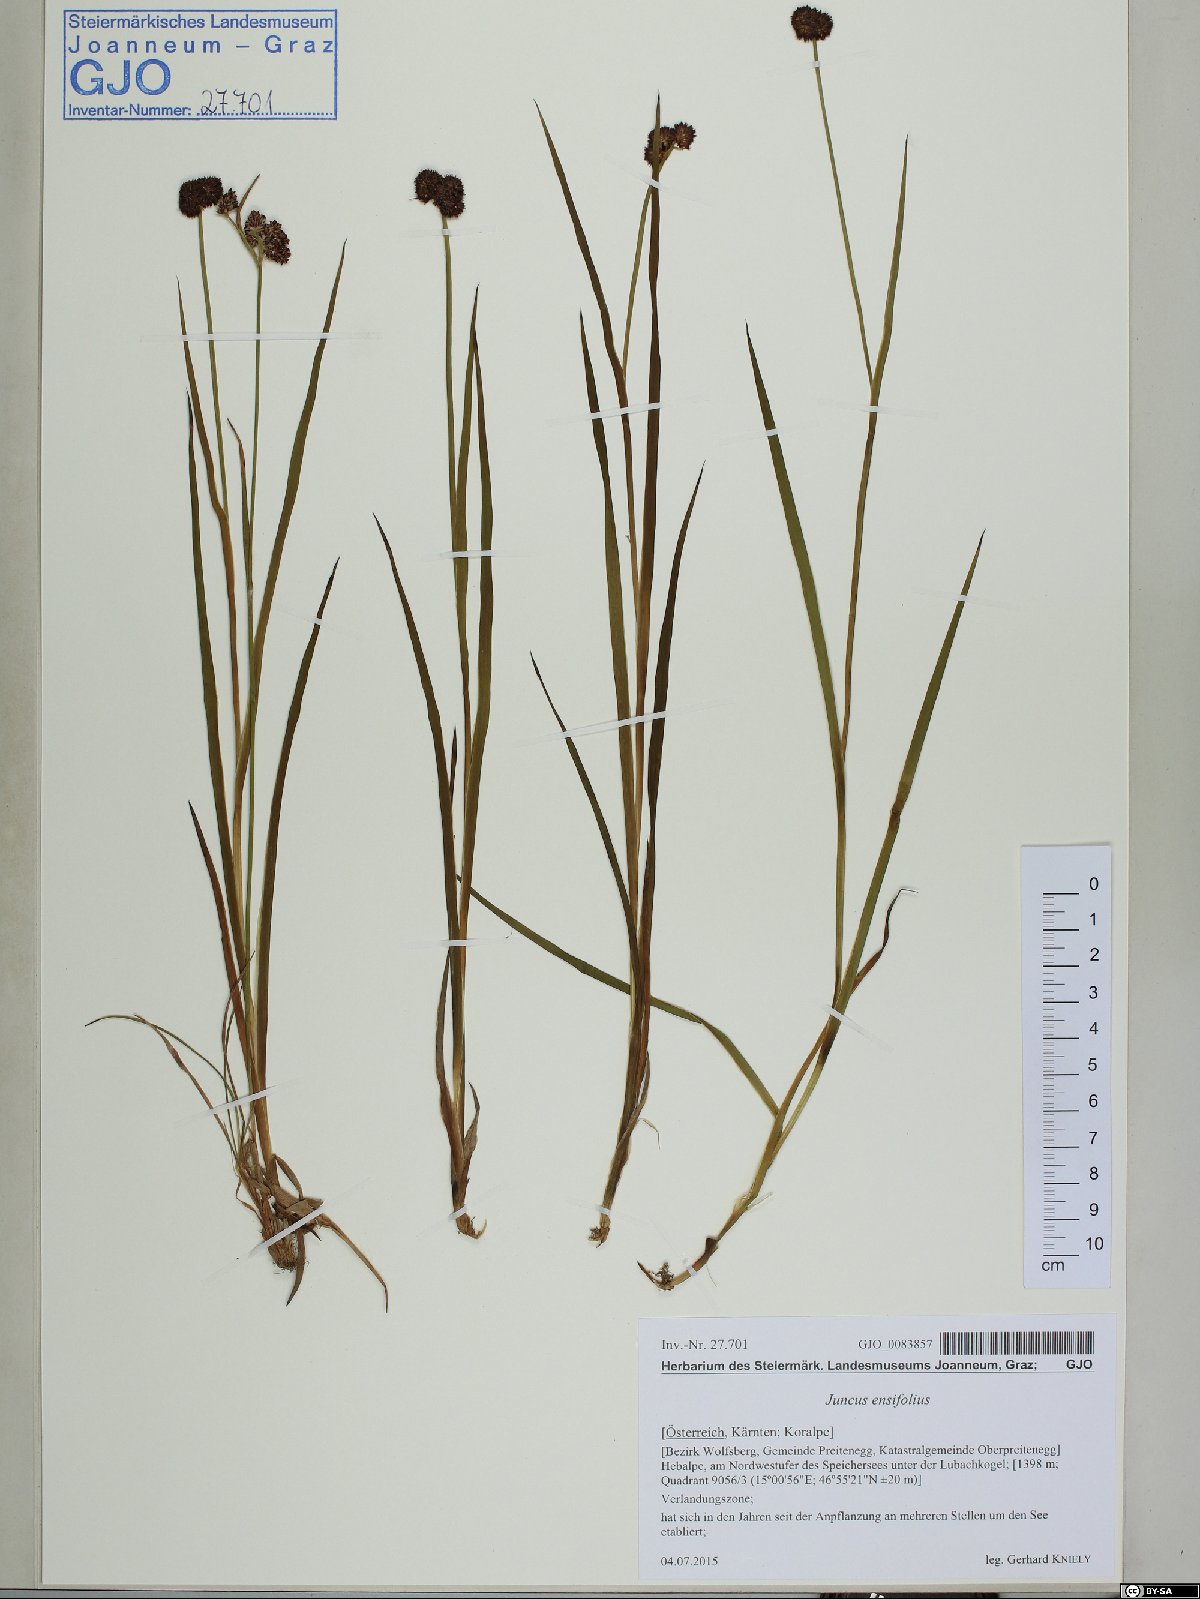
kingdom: Plantae
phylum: Tracheophyta
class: Liliopsida
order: Poales
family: Juncaceae
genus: Juncus
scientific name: Juncus ensifolius
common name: Sword-leaved rush
